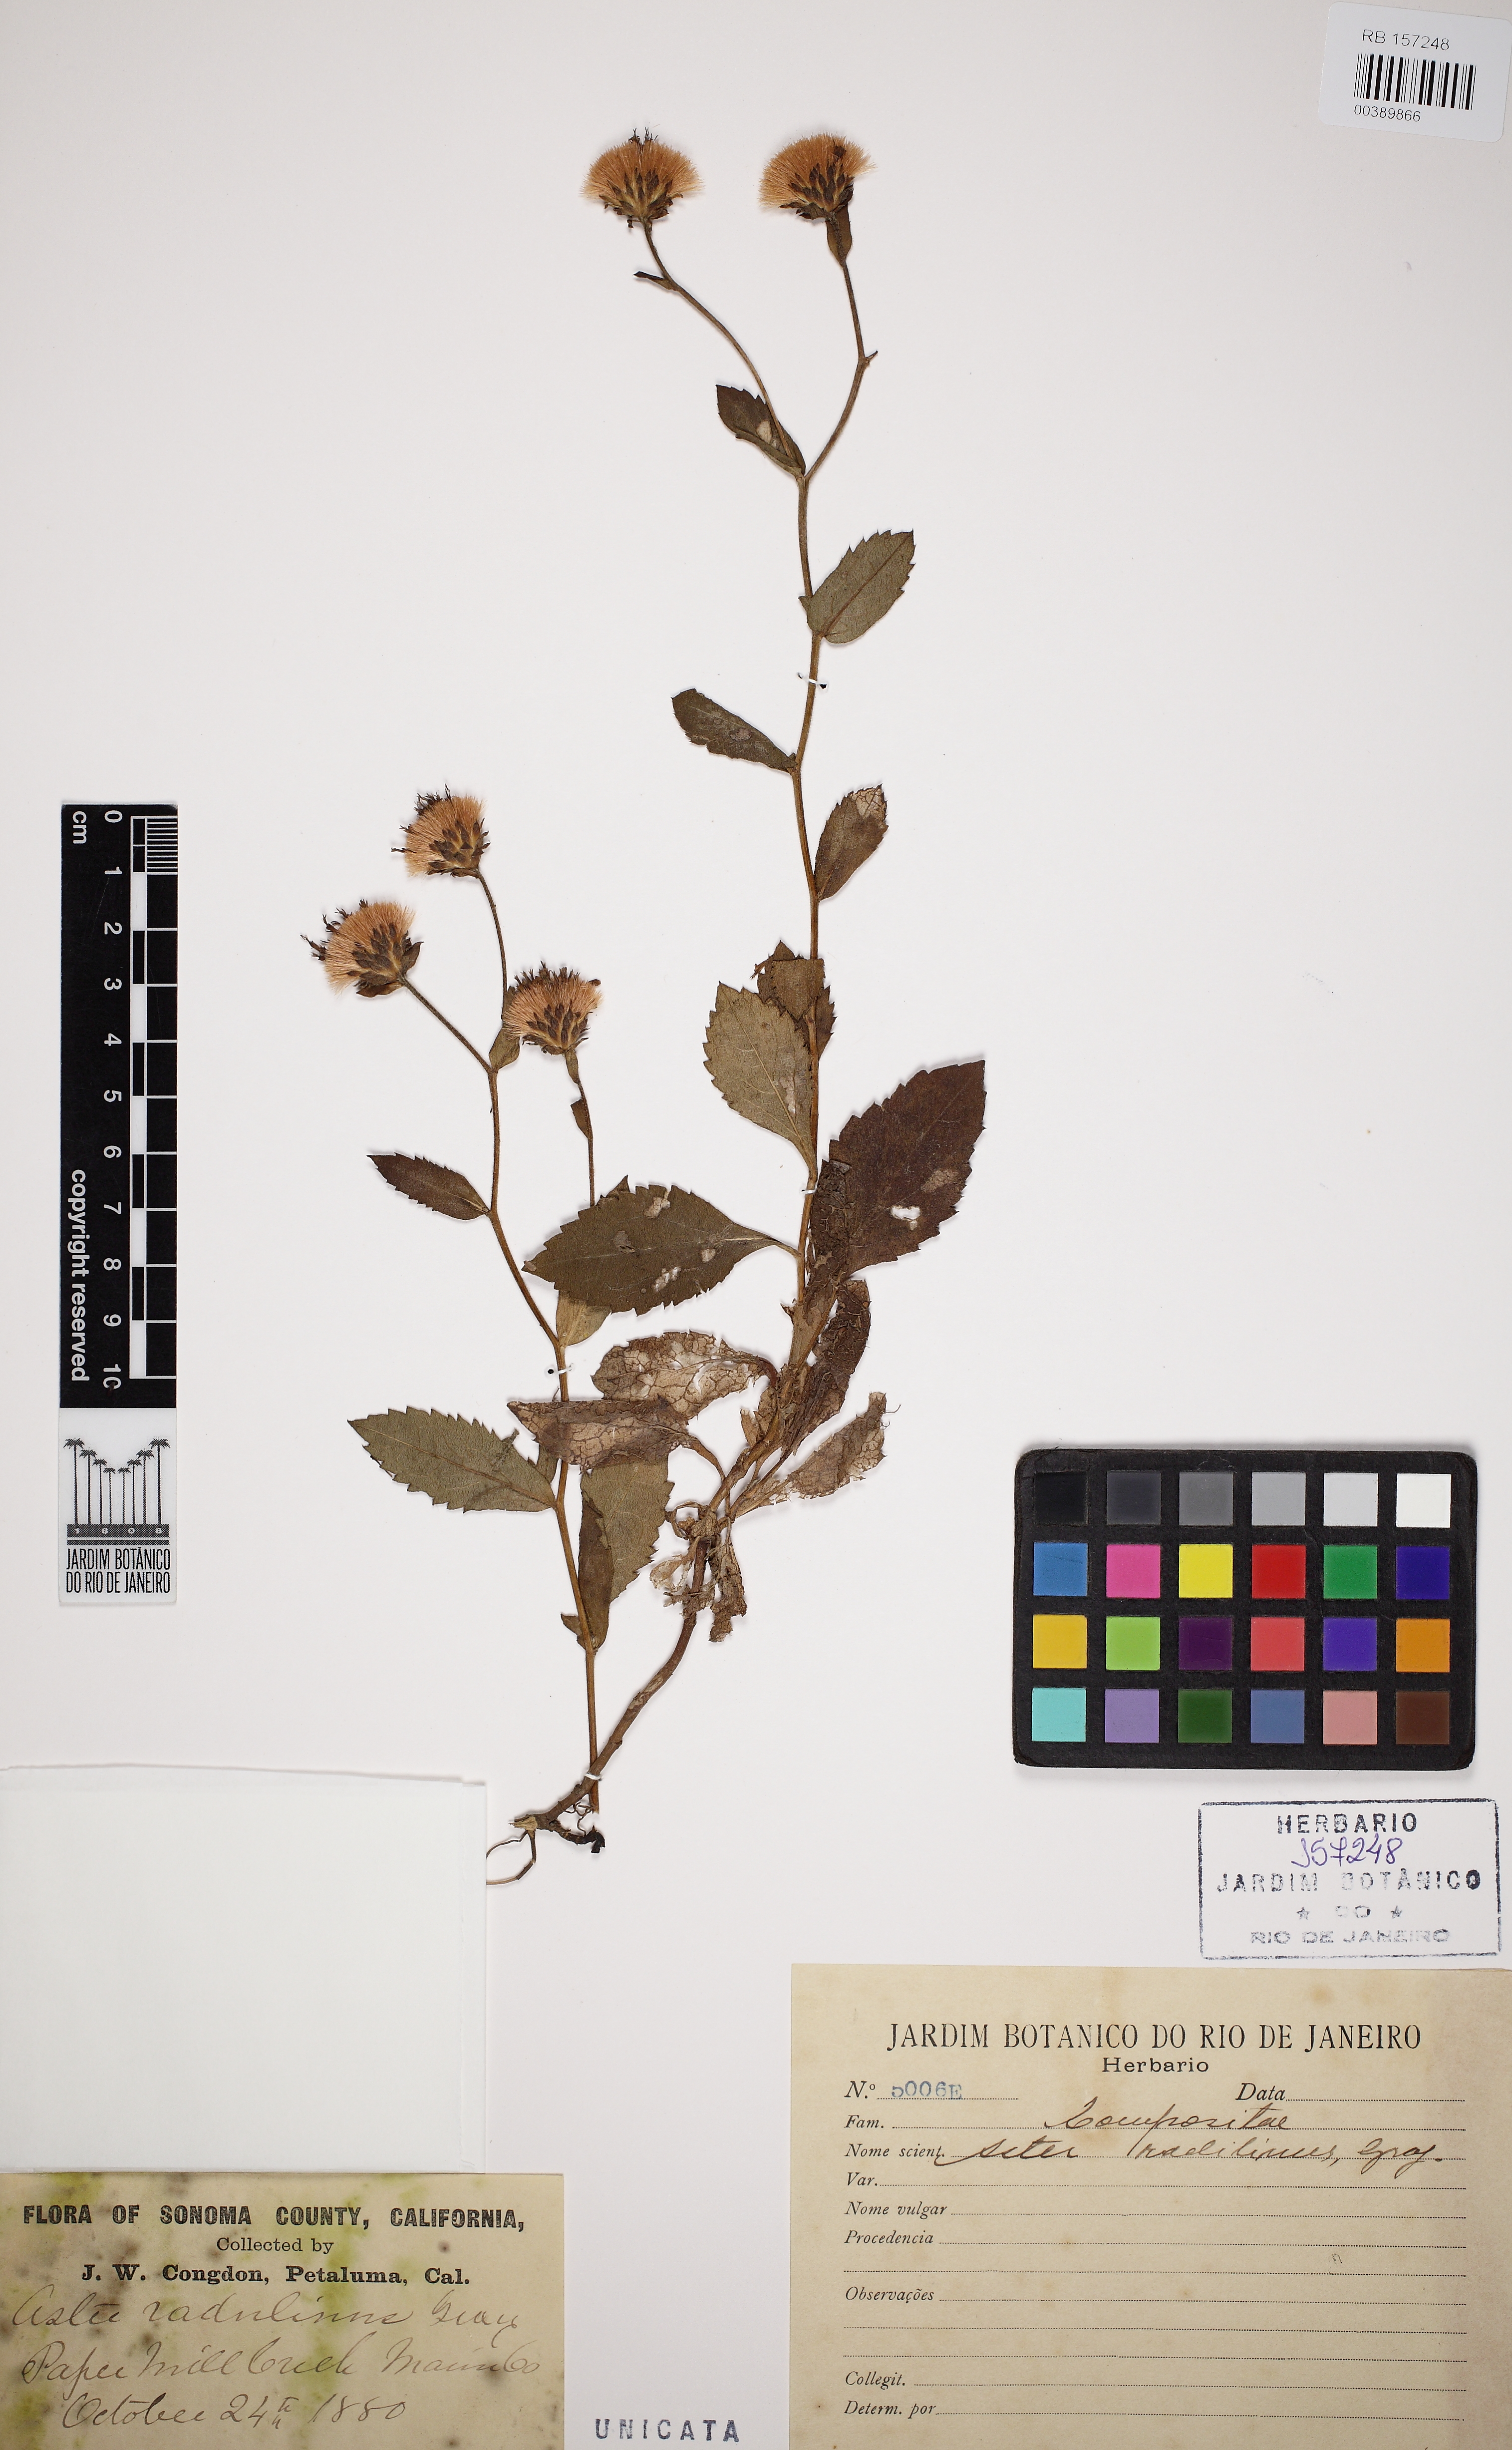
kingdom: Plantae
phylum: Tracheophyta
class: Magnoliopsida
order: Asterales
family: Asteraceae
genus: Symphyotrichum
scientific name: Symphyotrichum puniceum
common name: Bog aster
